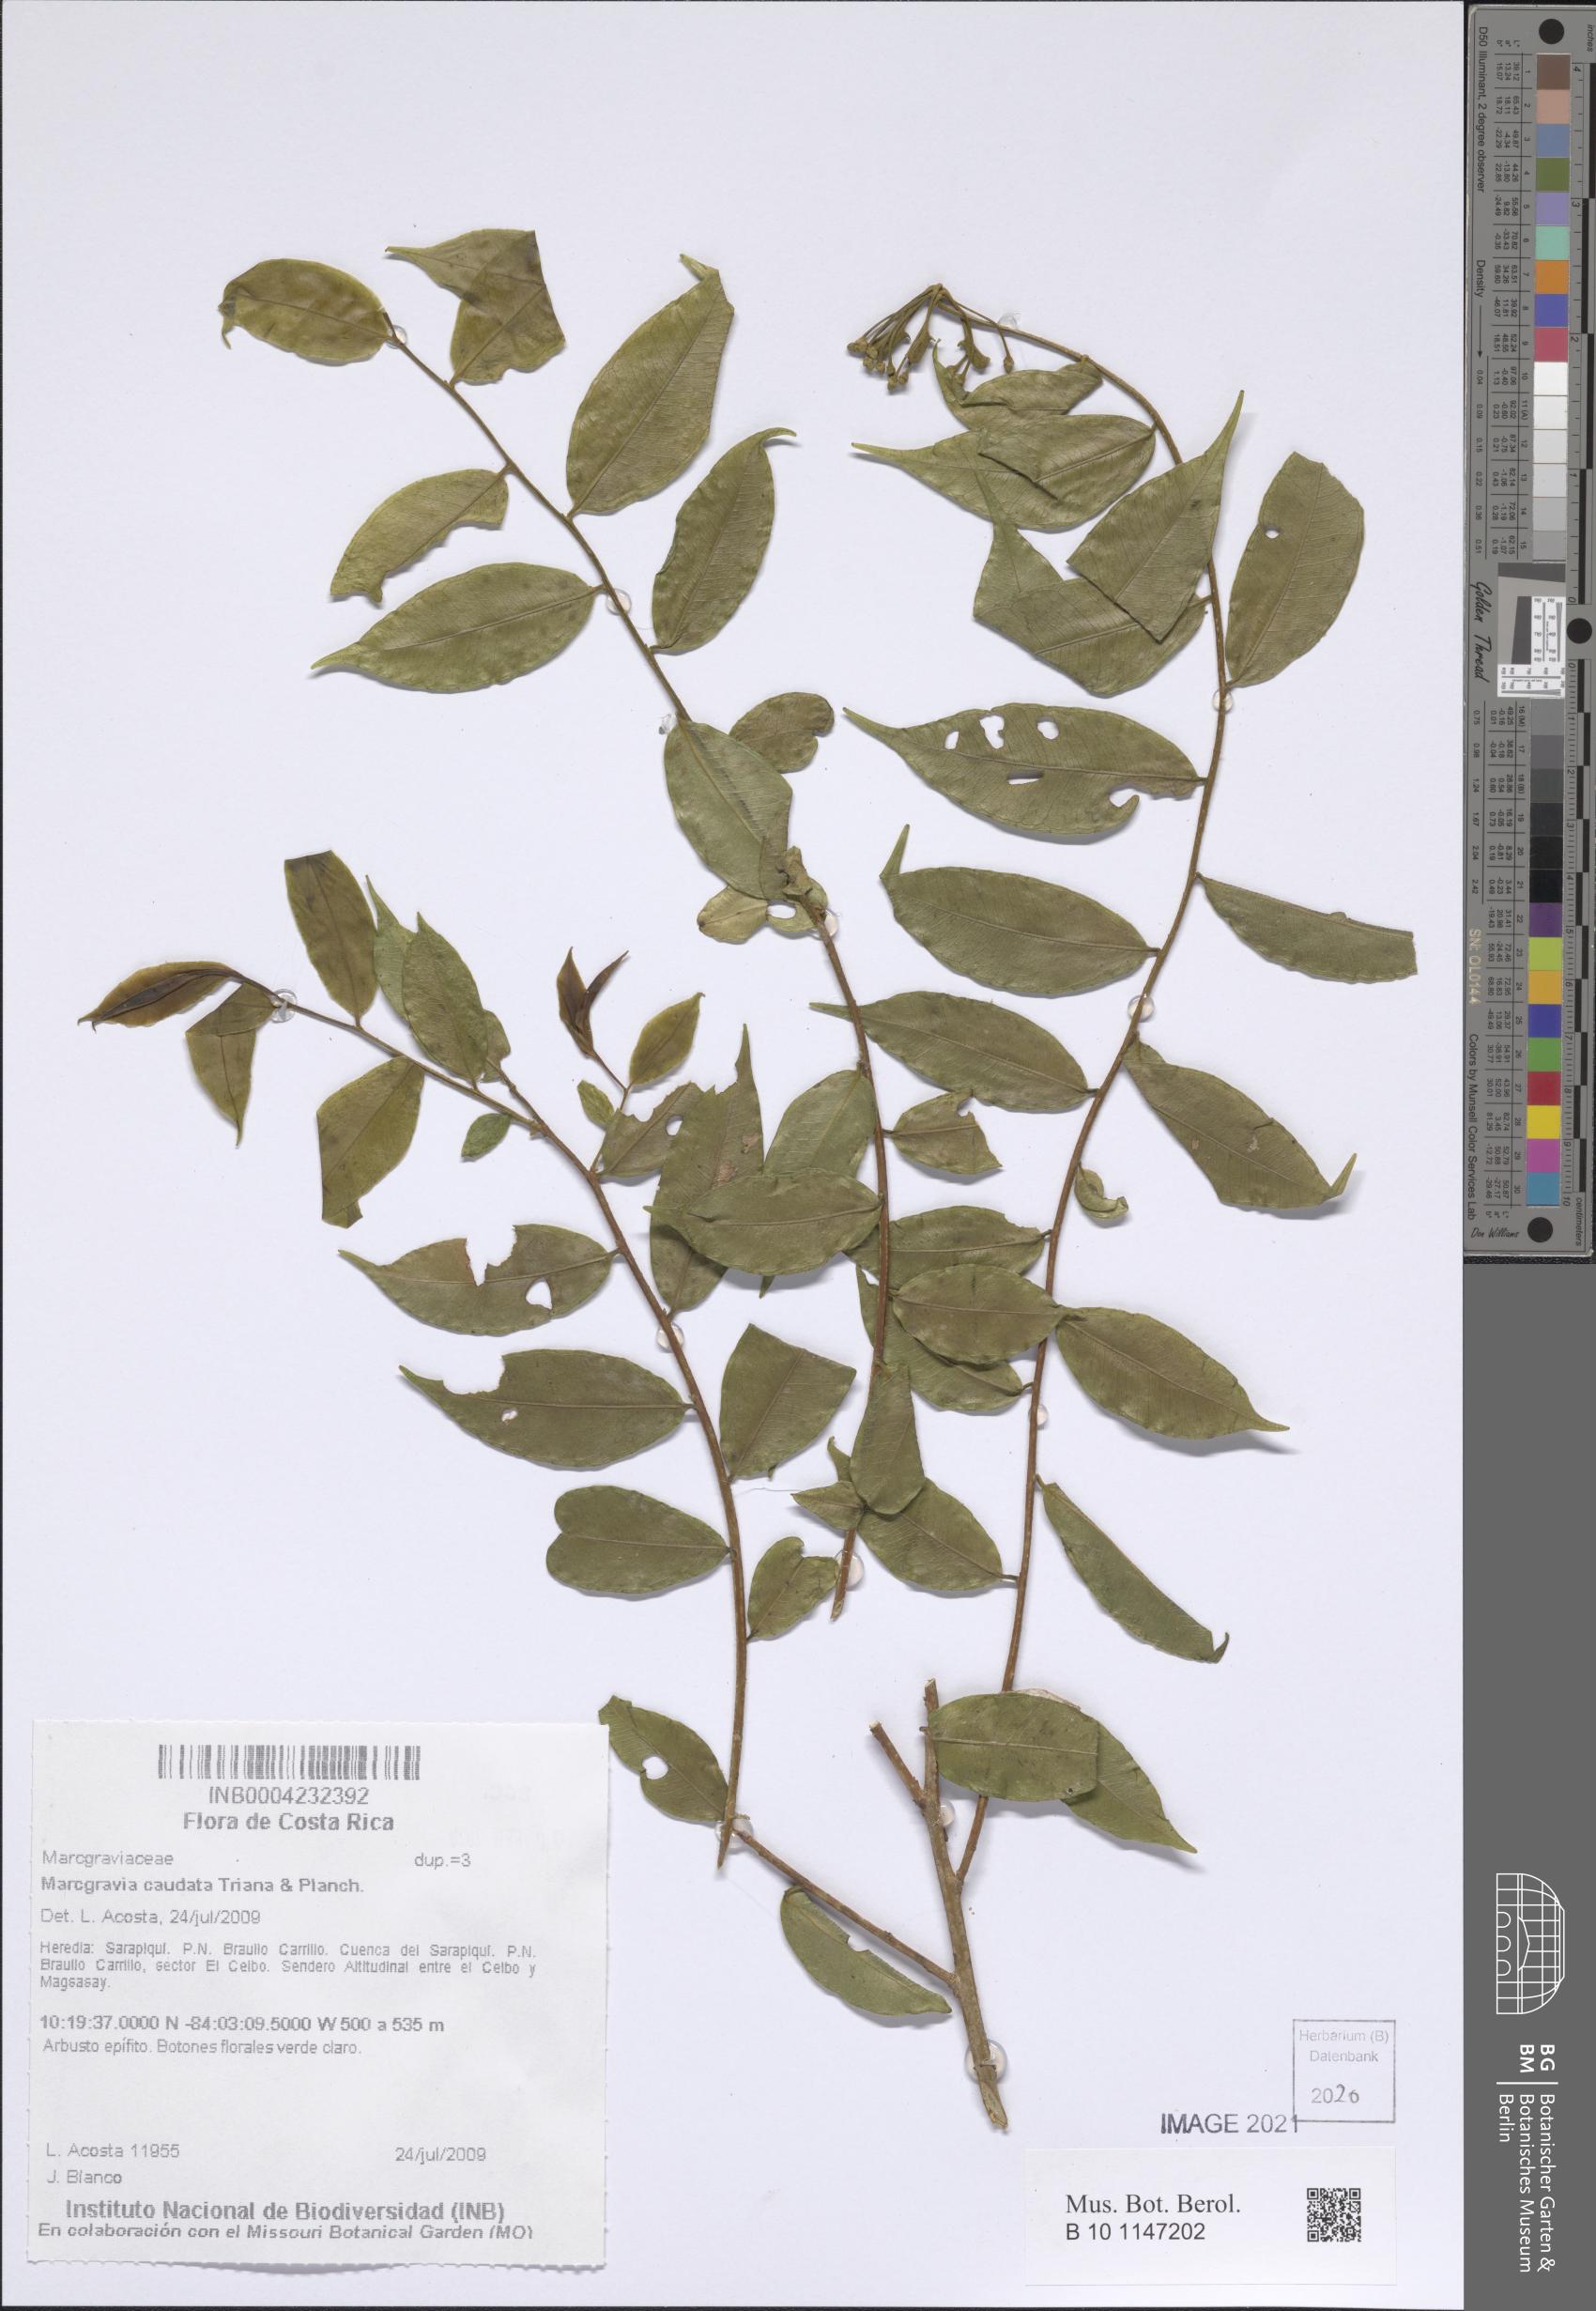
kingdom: Plantae
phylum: Tracheophyta
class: Magnoliopsida
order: Ericales
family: Marcgraviaceae
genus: Marcgravia
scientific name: Marcgravia caudata
